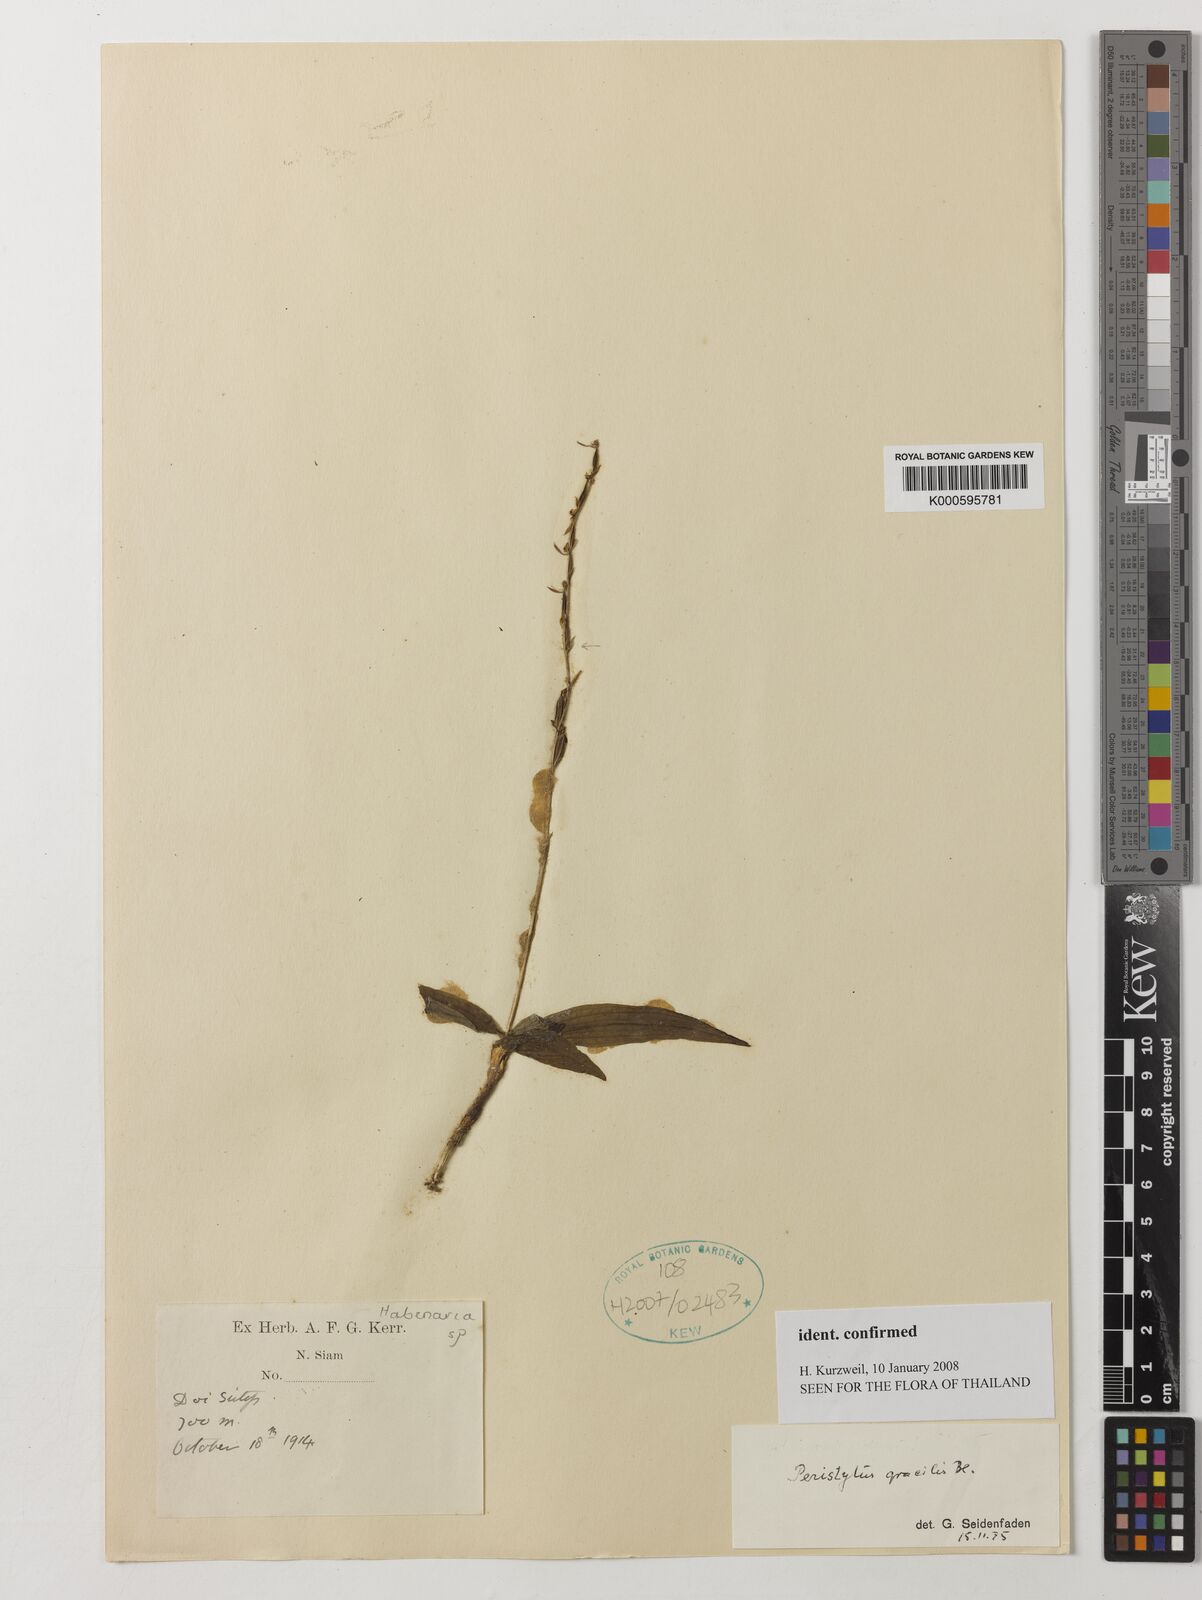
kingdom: Plantae
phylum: Tracheophyta
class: Liliopsida
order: Asparagales
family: Orchidaceae
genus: Peristylus
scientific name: Peristylus gracilis
